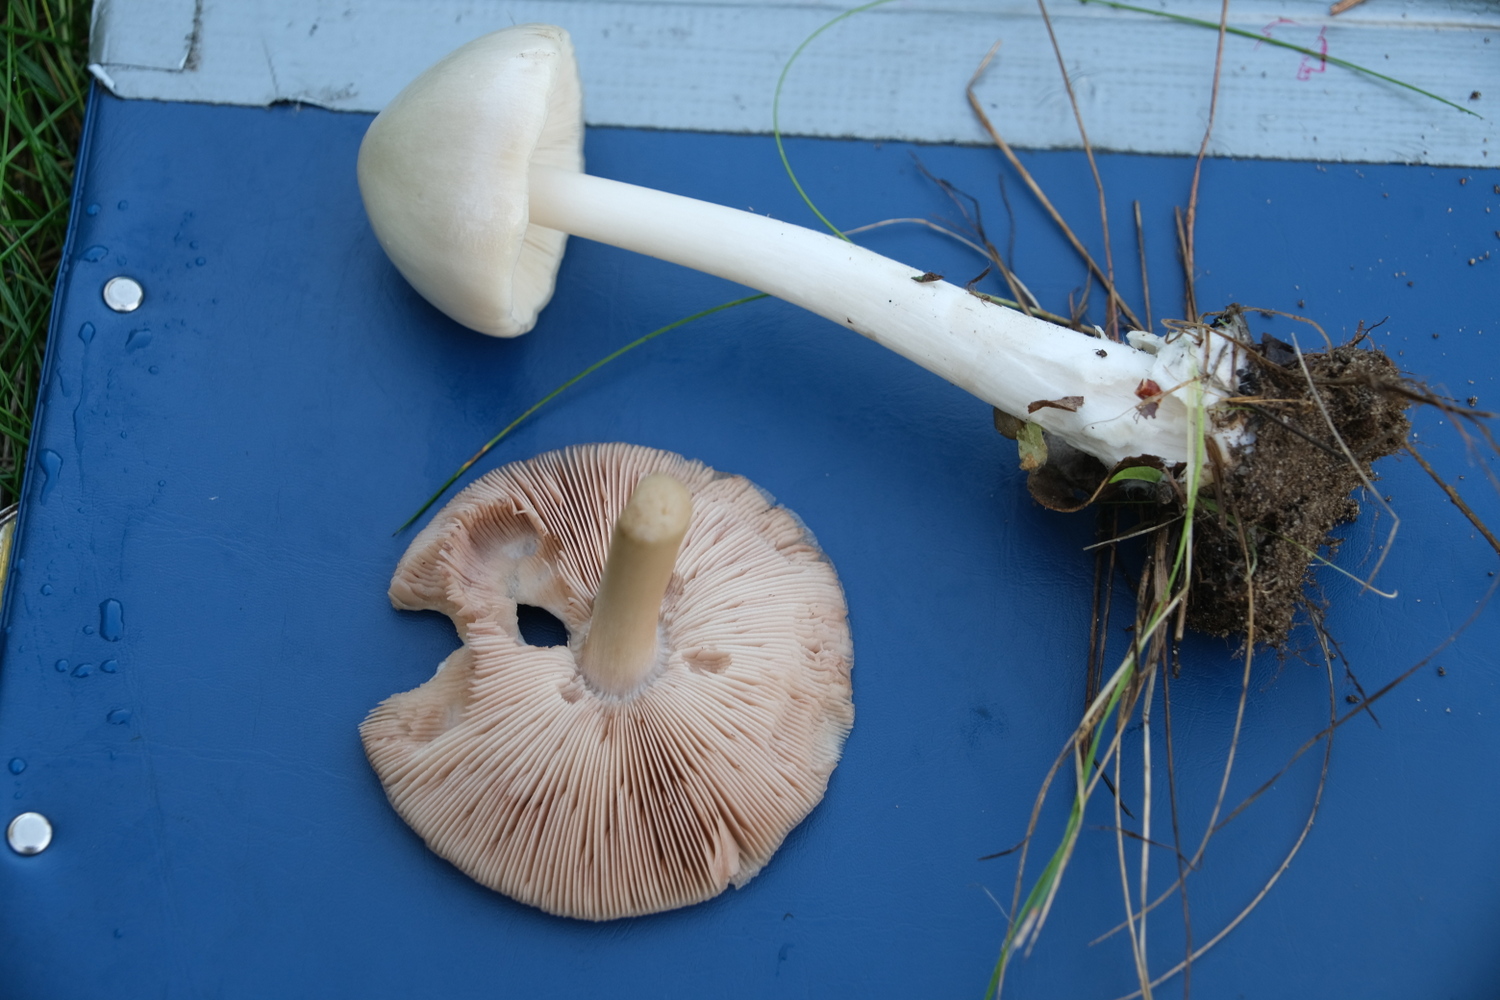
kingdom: Fungi
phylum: Basidiomycota
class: Agaricomycetes
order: Agaricales
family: Pluteaceae
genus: Volvopluteus
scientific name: Volvopluteus gloiocephalus
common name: høj posesvamp
